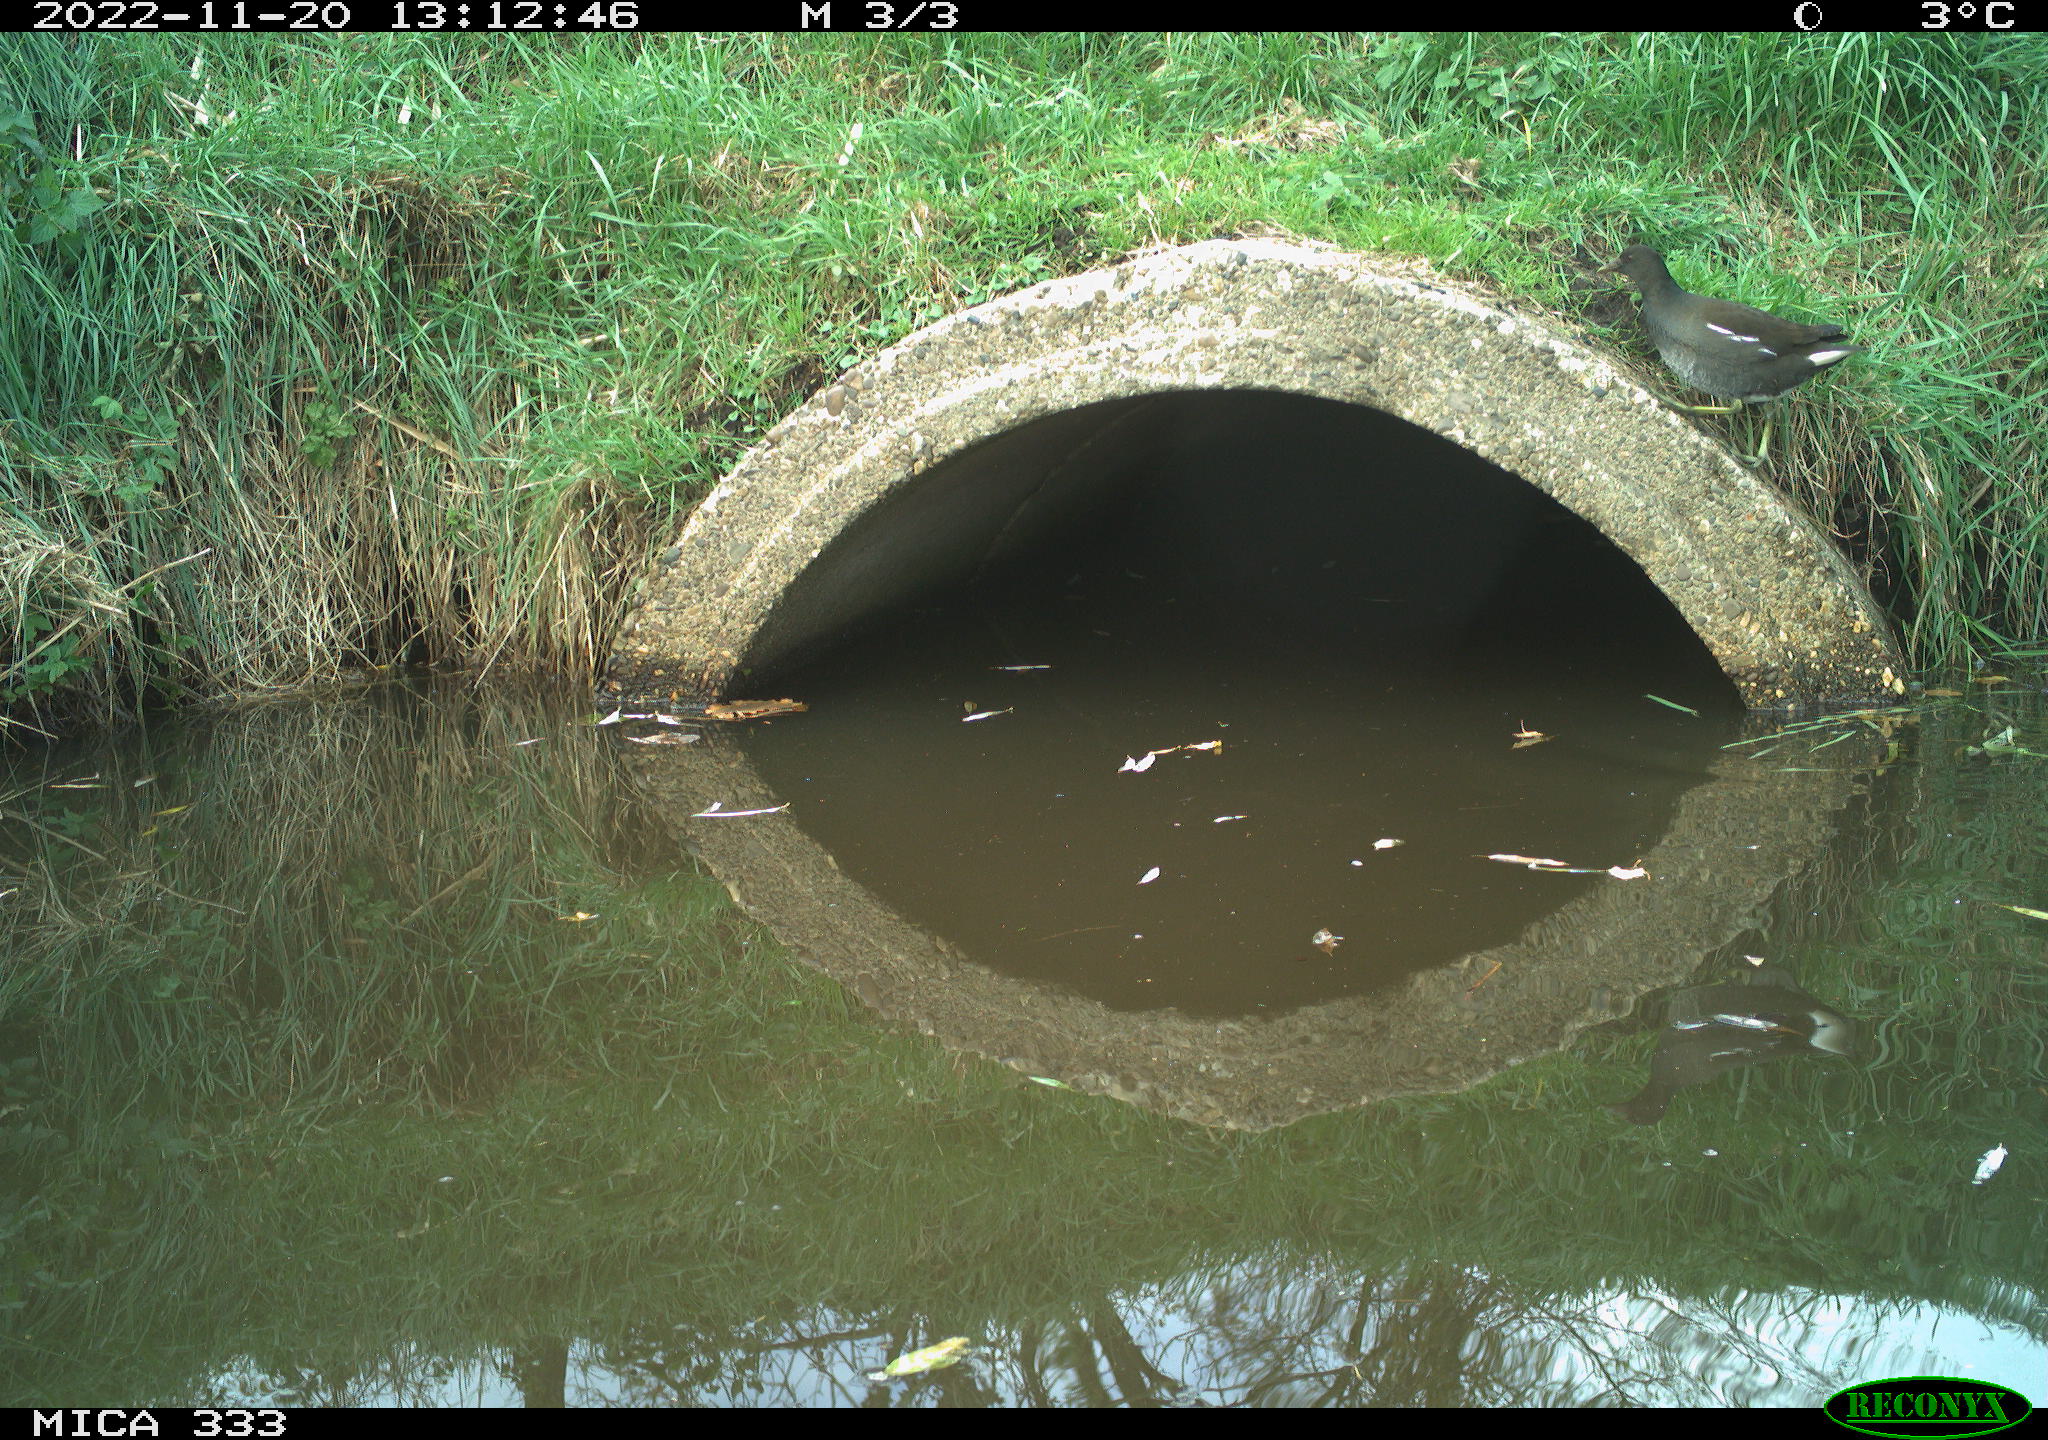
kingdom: Animalia
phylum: Chordata
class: Aves
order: Gruiformes
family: Rallidae
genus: Gallinula
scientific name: Gallinula chloropus
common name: Common moorhen
